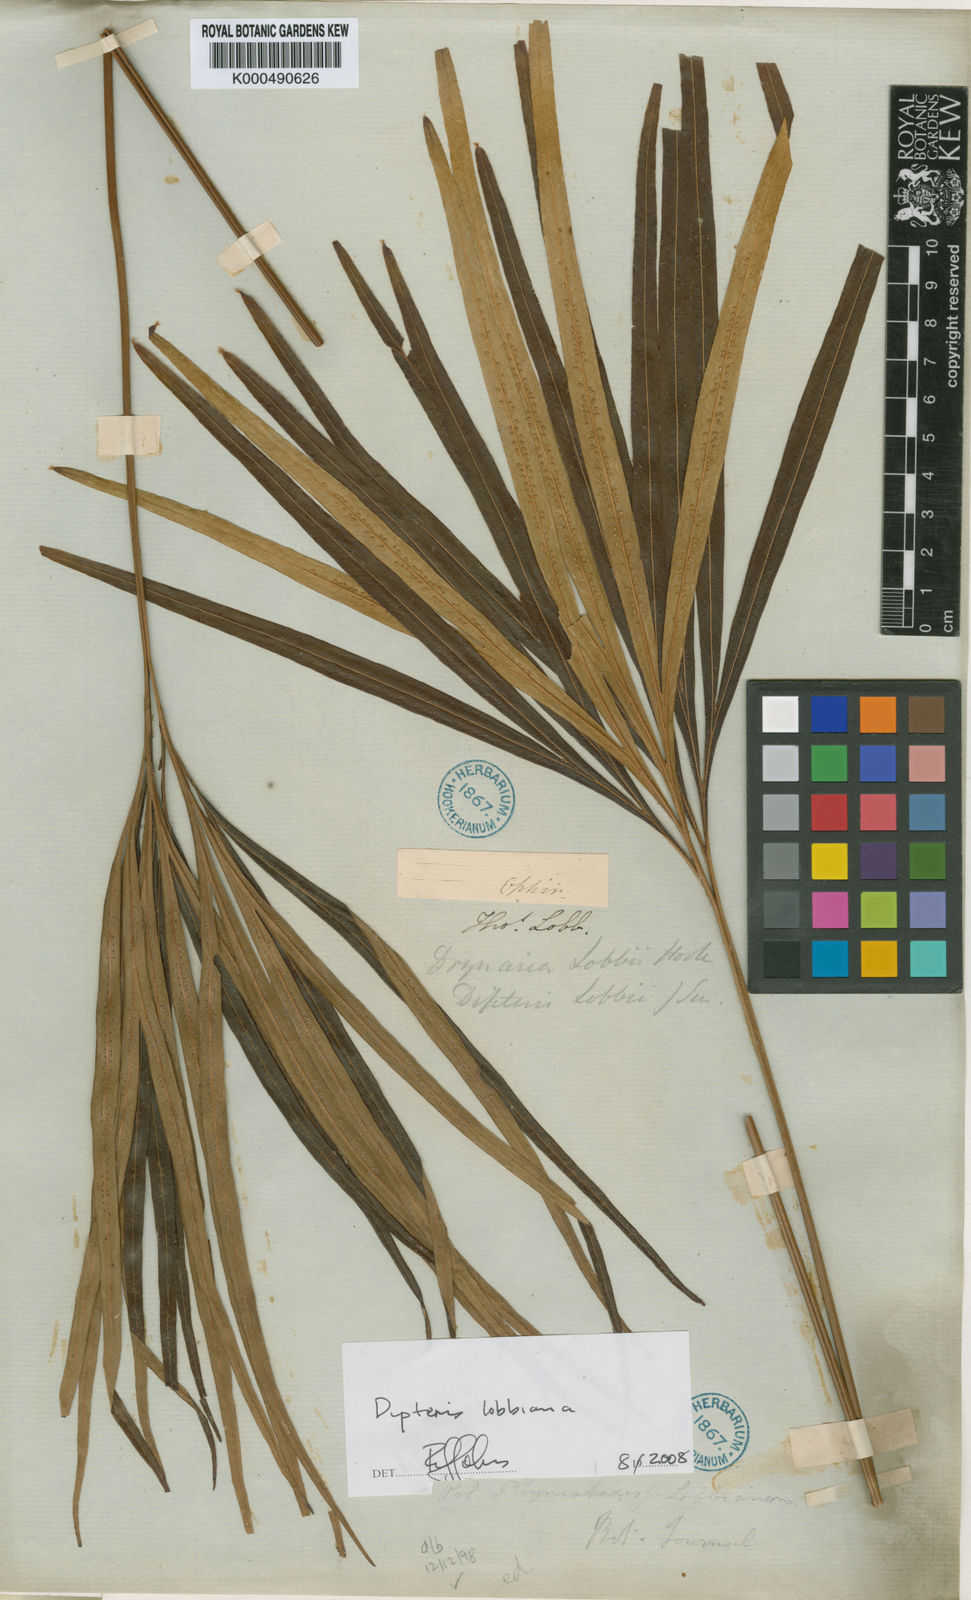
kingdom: Plantae
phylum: Tracheophyta
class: Polypodiopsida
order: Gleicheniales
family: Dipteridaceae
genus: Dipteris
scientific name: Dipteris lobbiana
